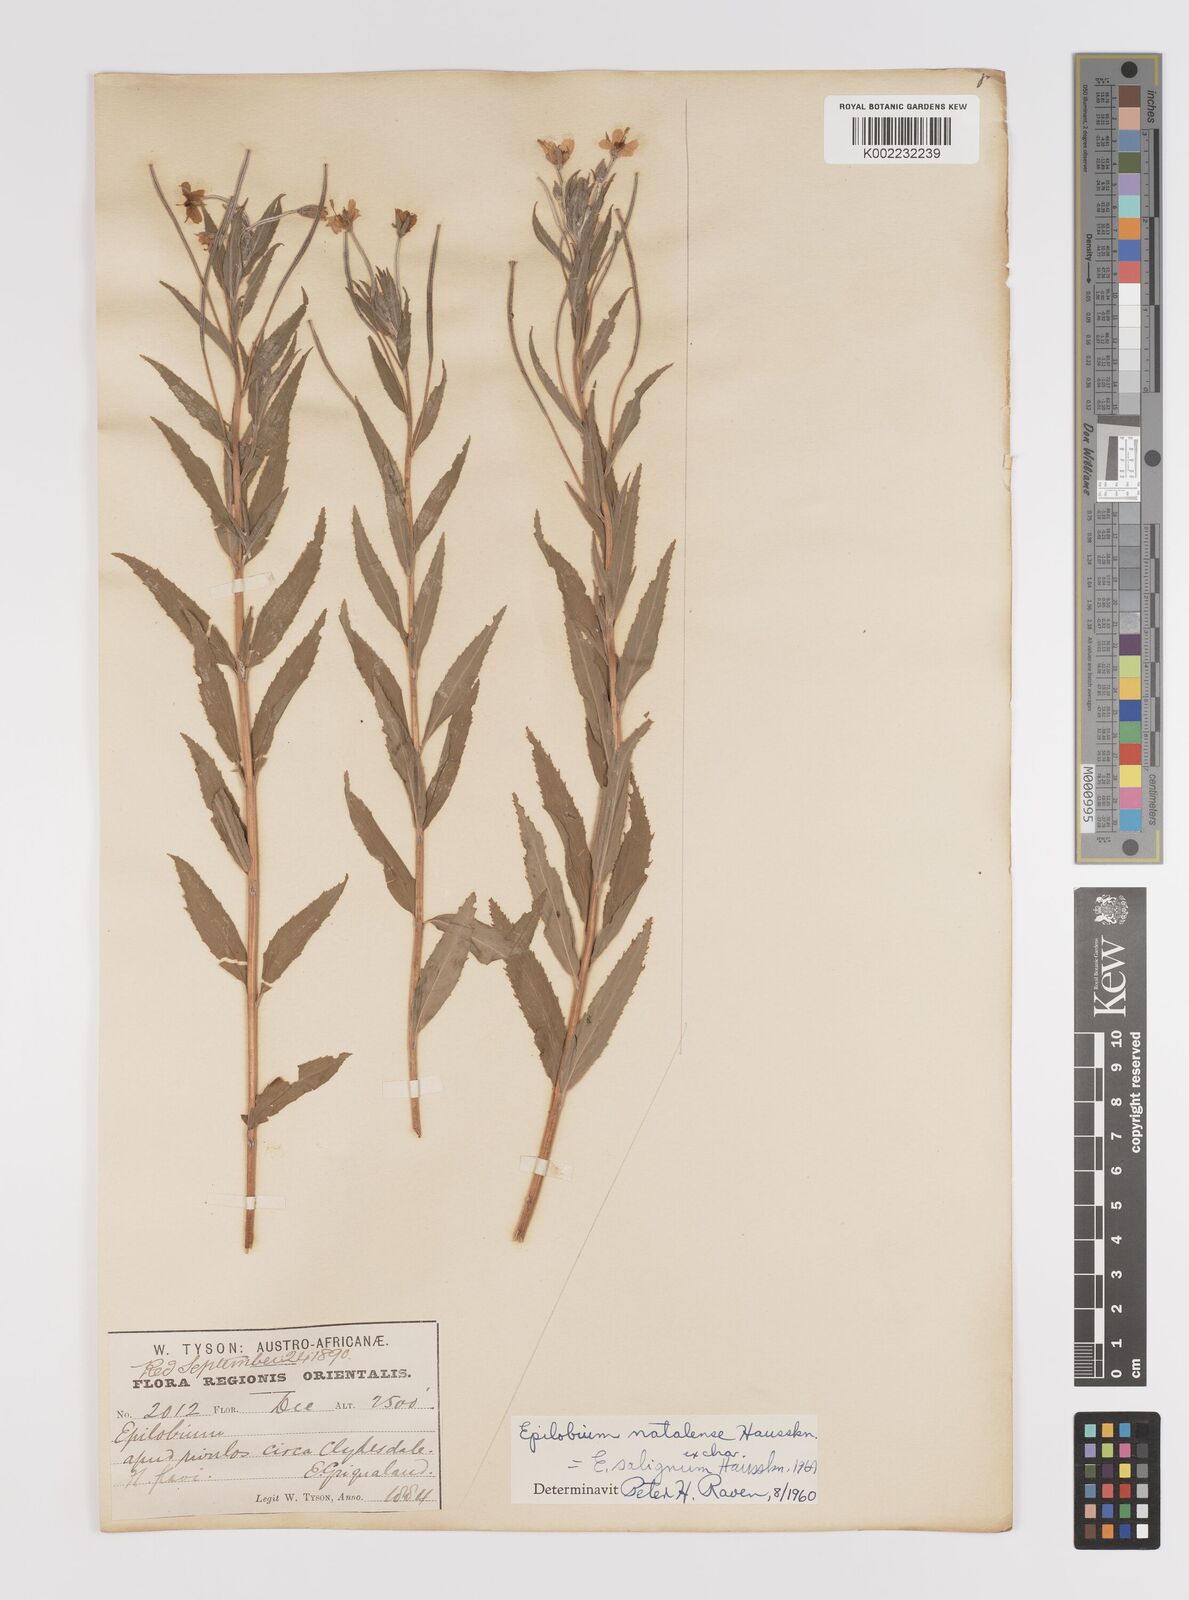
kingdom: Plantae
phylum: Tracheophyta
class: Magnoliopsida
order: Myrtales
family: Onagraceae
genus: Epilobium
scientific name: Epilobium salignum
